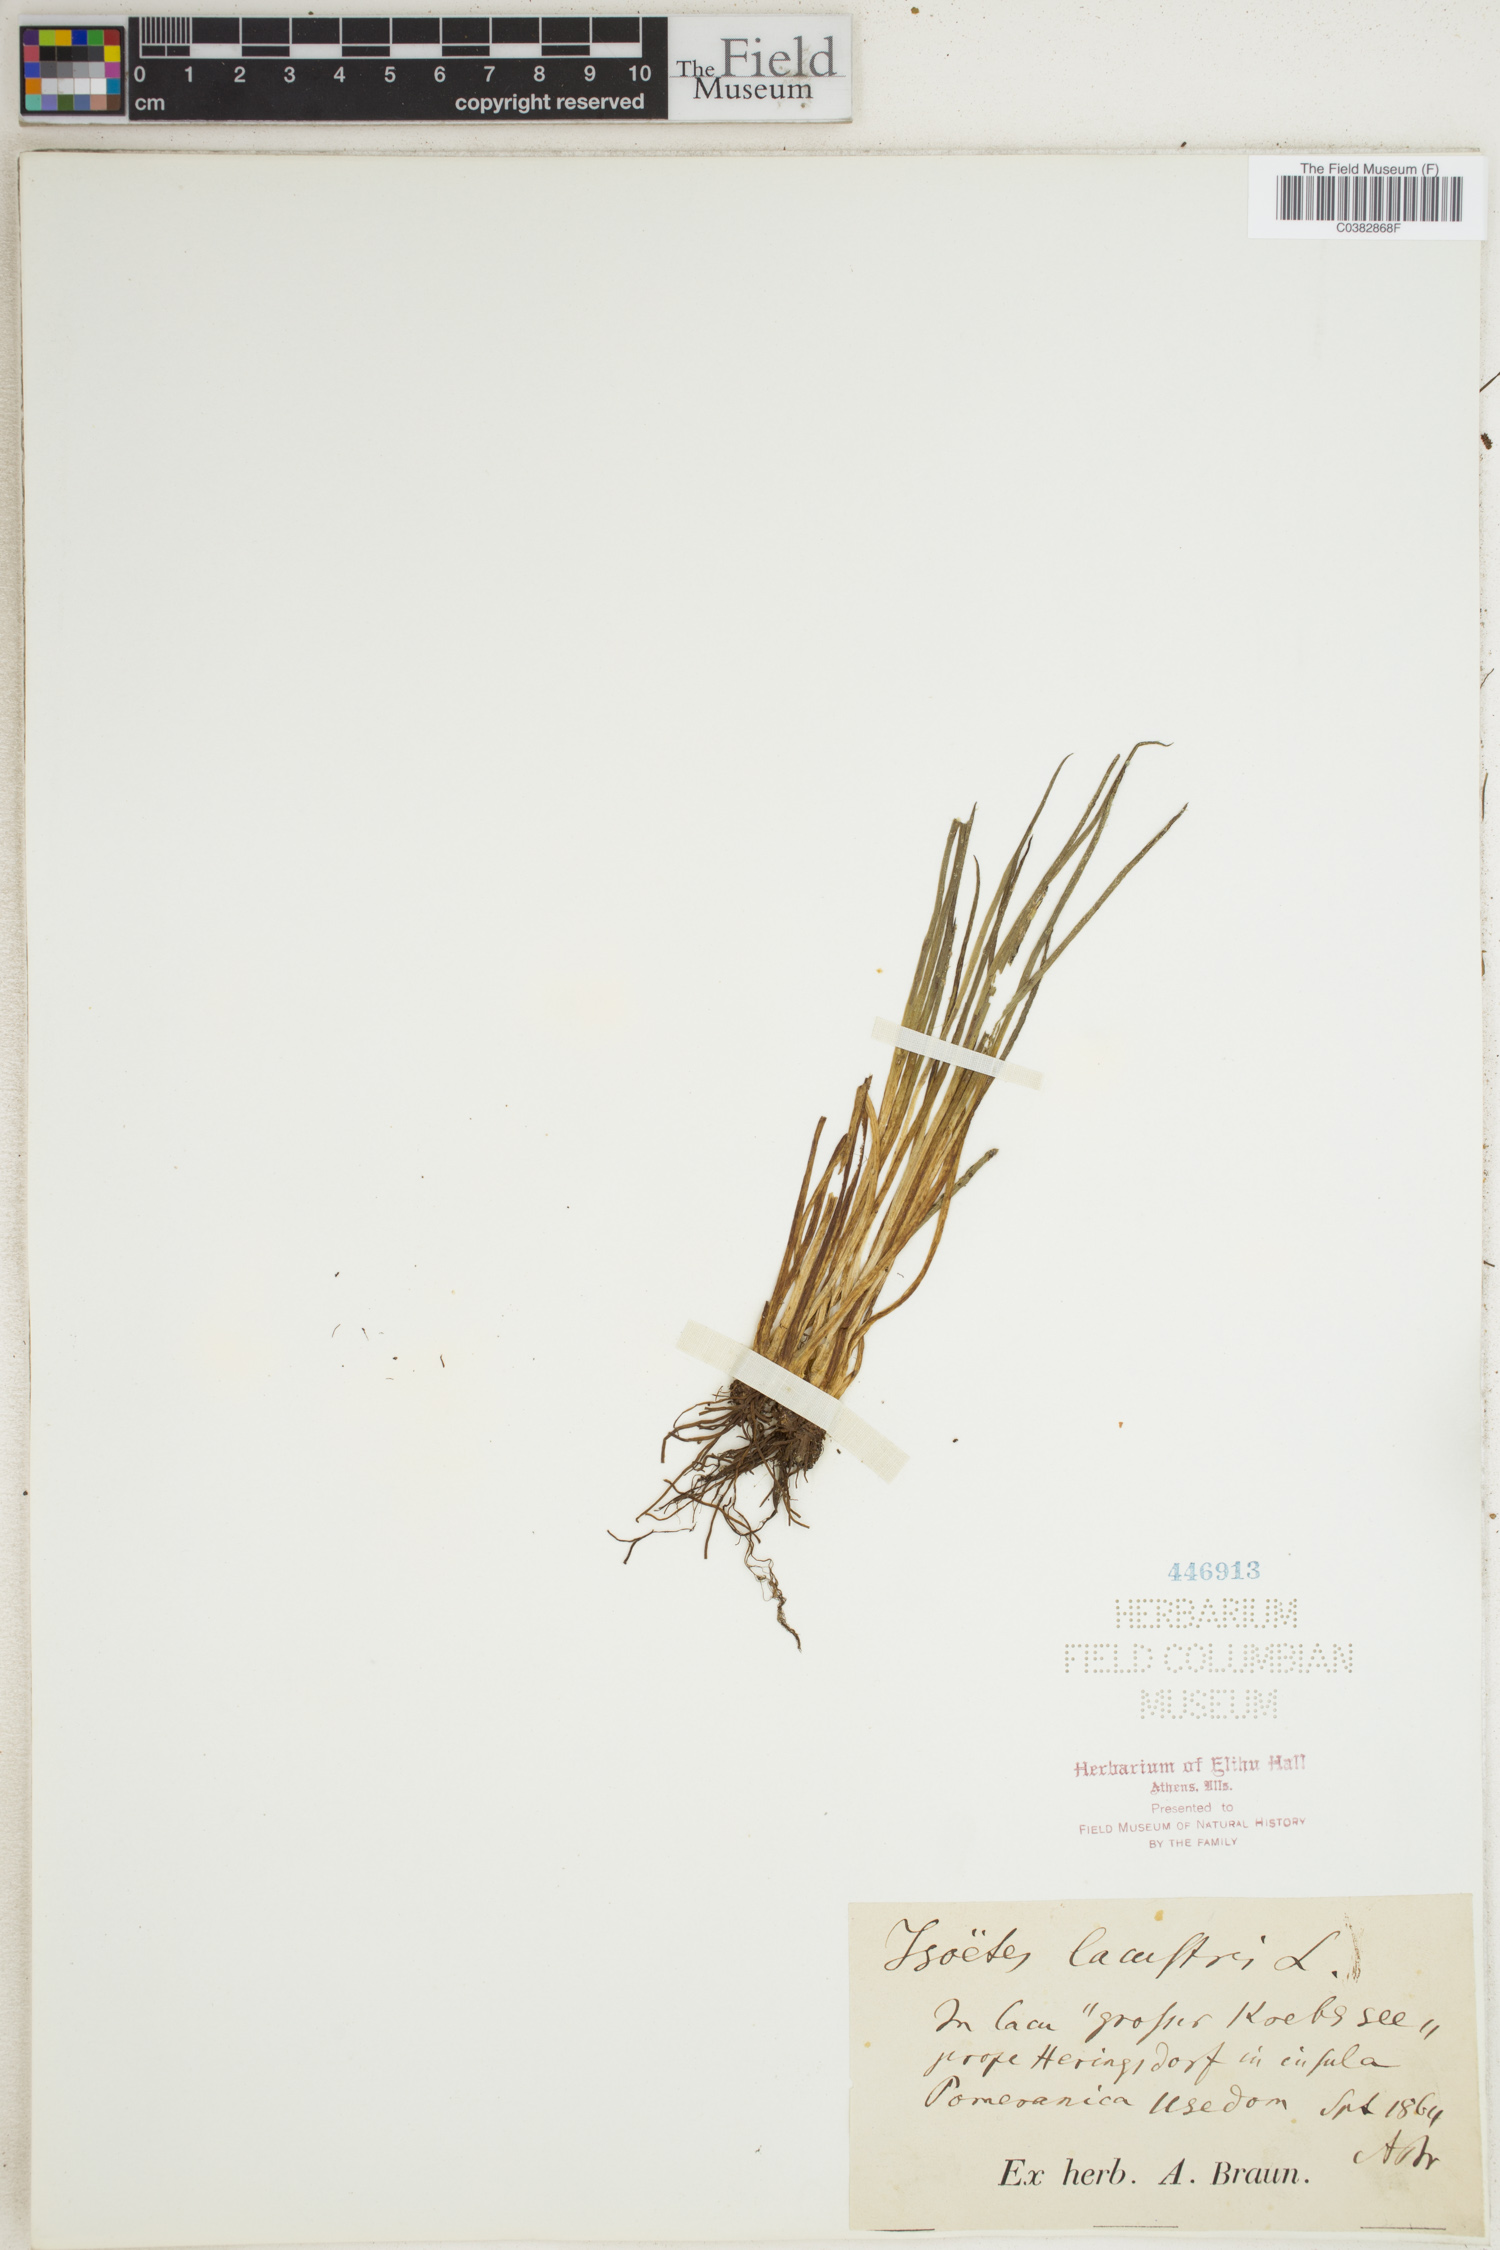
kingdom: Plantae
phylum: Tracheophyta
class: Lycopodiopsida
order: Isoetales
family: Isoetaceae
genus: Isoetes
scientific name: Isoetes lacustris
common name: Common quillwort
